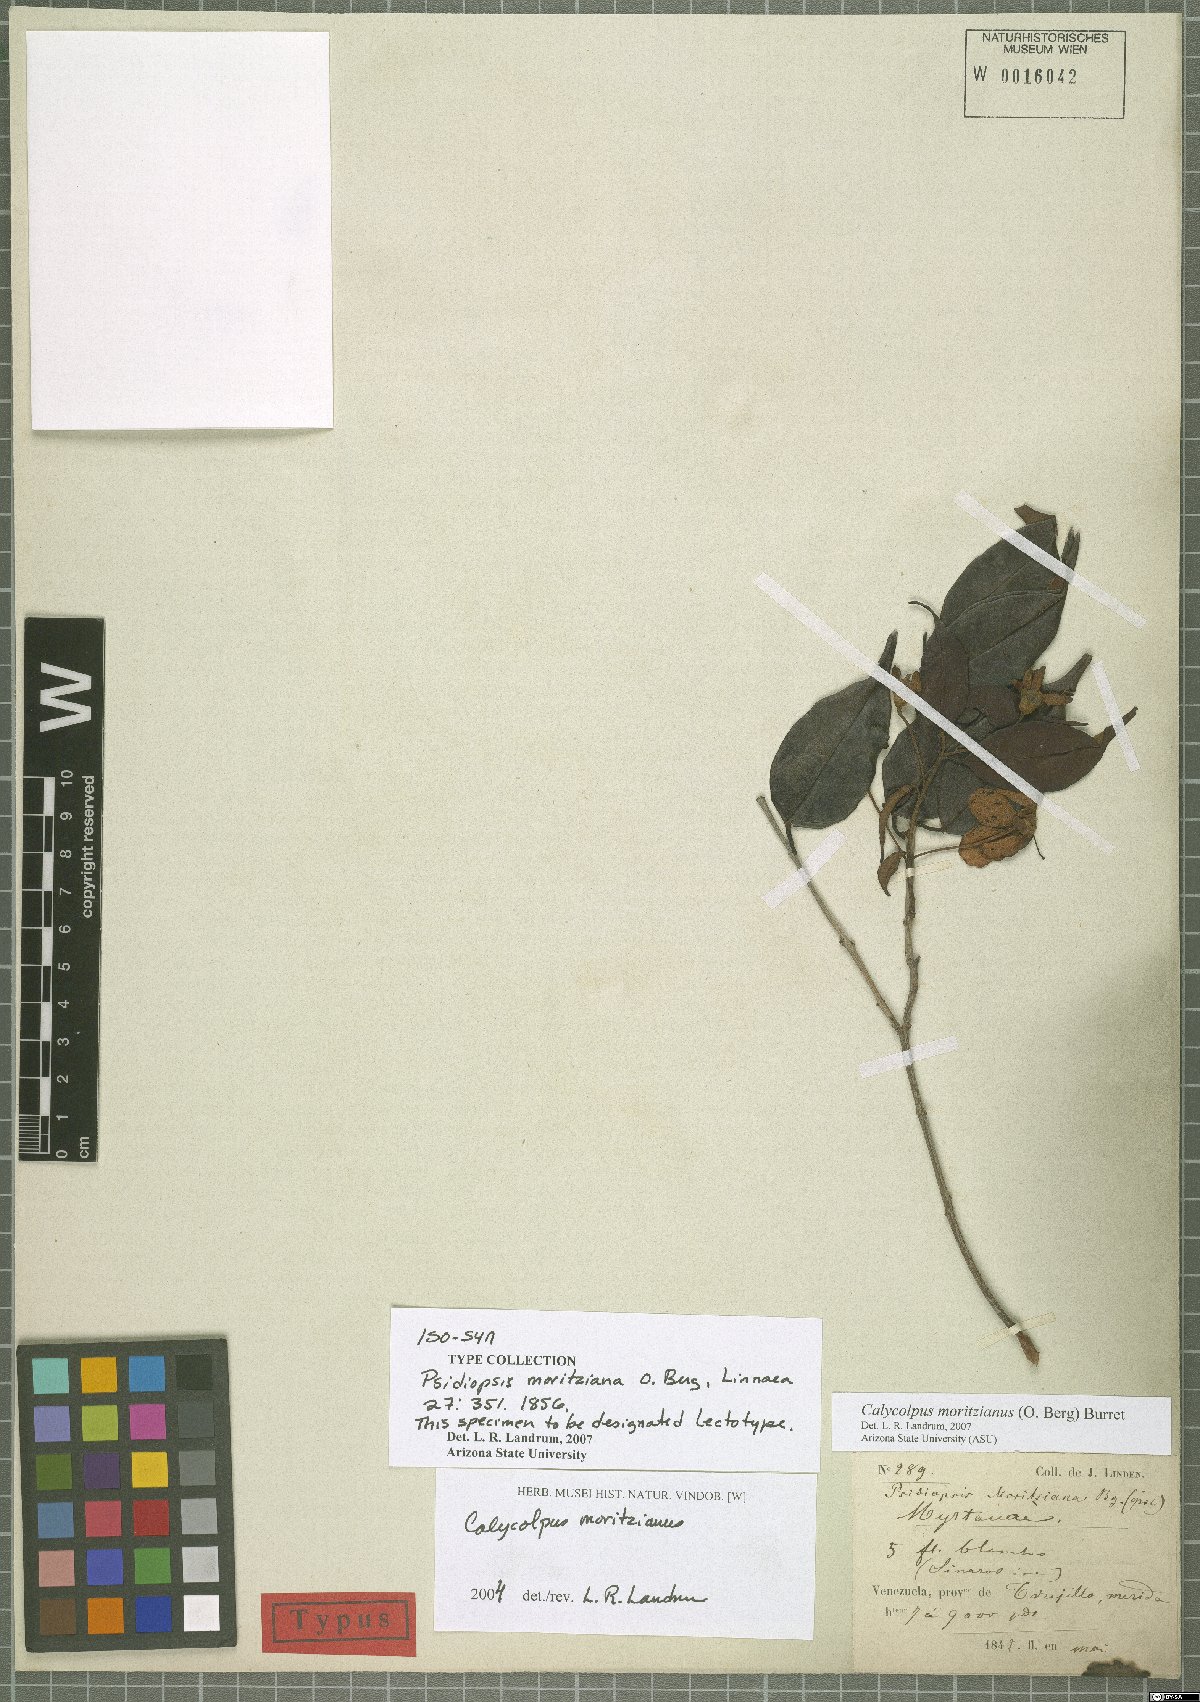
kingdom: Plantae
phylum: Tracheophyta
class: Magnoliopsida
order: Myrtales
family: Myrtaceae
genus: Calycolpus
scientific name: Calycolpus moritzianus
